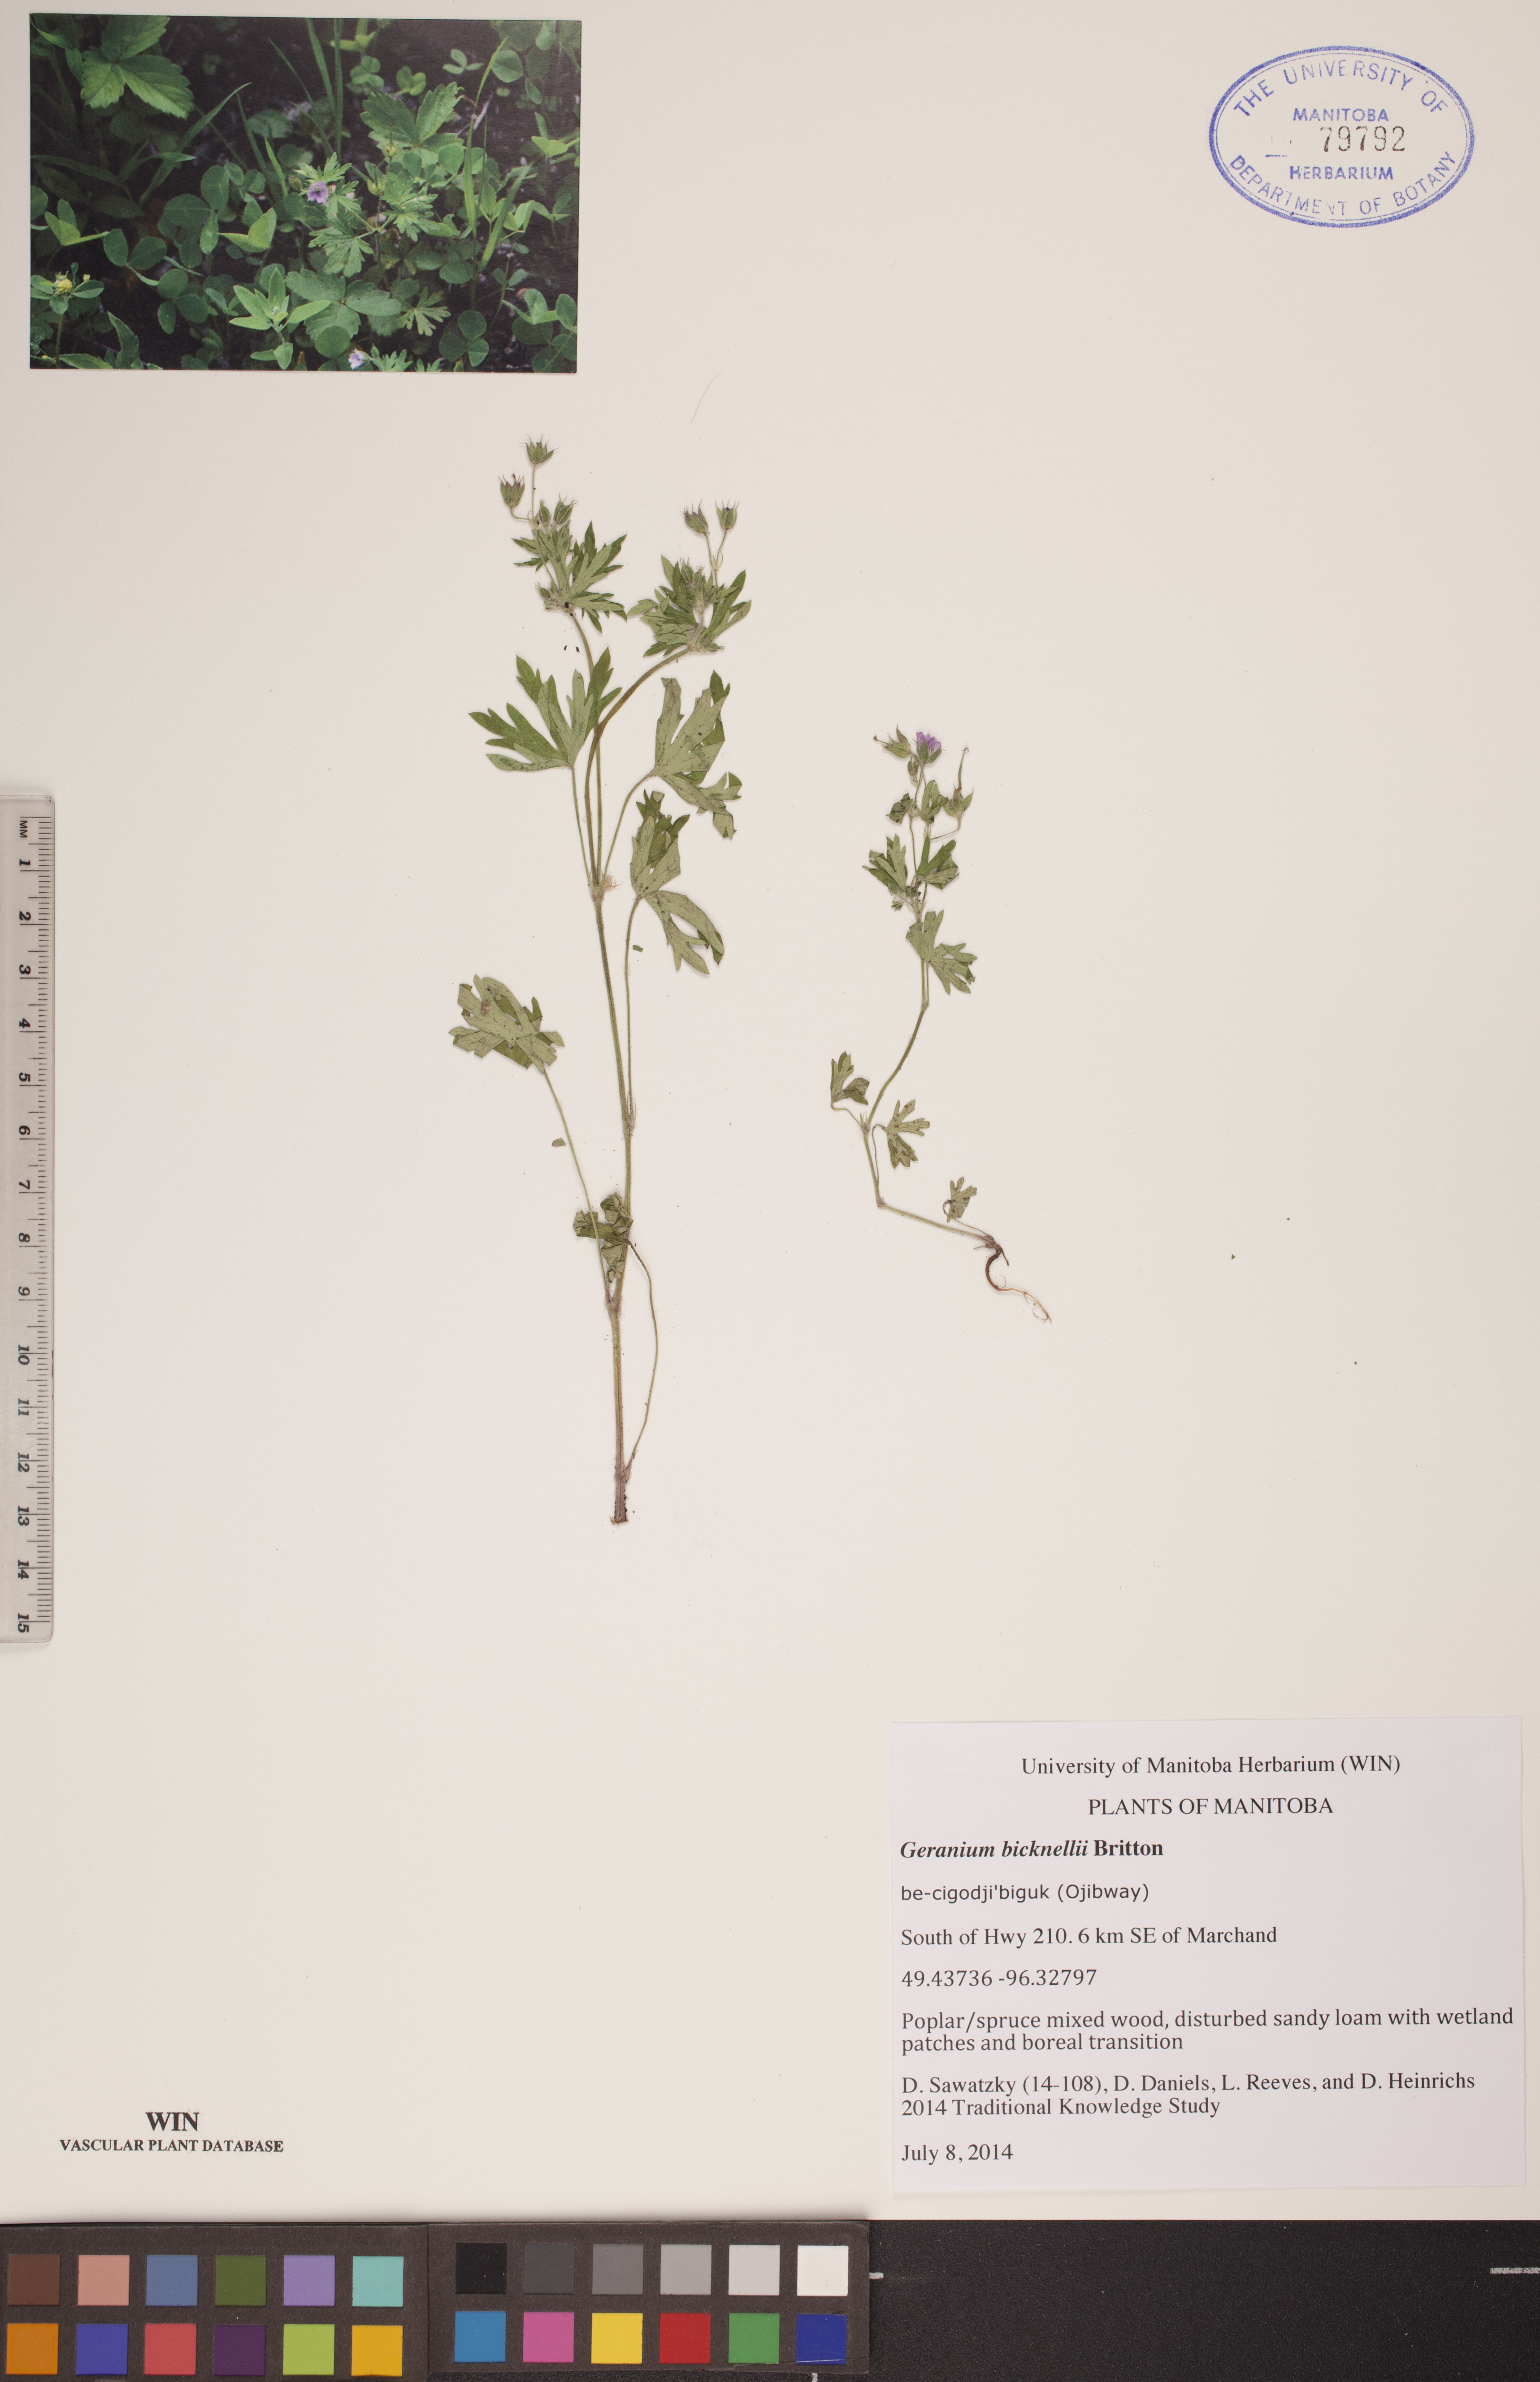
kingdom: Plantae
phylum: Tracheophyta
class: Magnoliopsida
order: Geraniales
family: Geraniaceae
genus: Geranium
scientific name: Geranium bicknellii
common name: Bicknell's cranesbill
